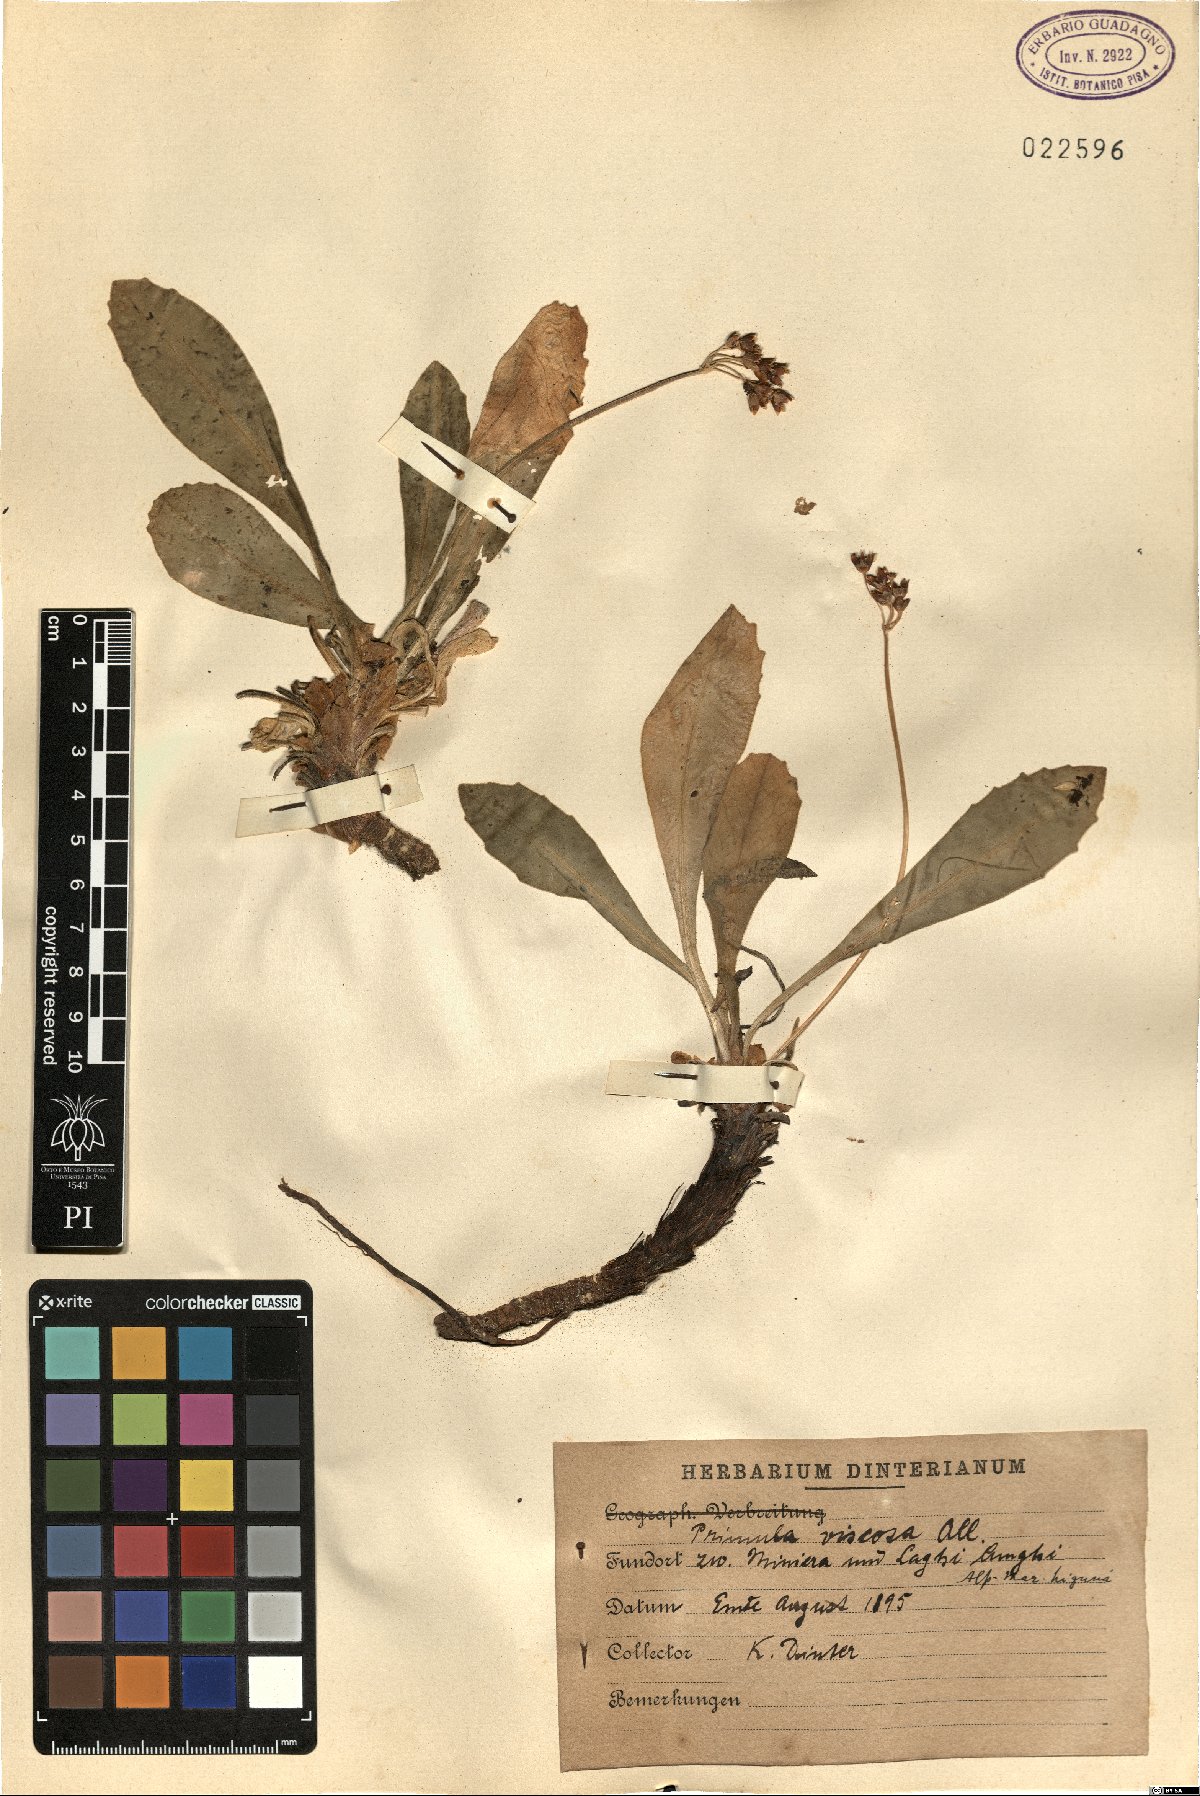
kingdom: Plantae
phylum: Tracheophyta
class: Magnoliopsida
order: Ericales
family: Primulaceae
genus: Primula
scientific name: Primula latifolia
